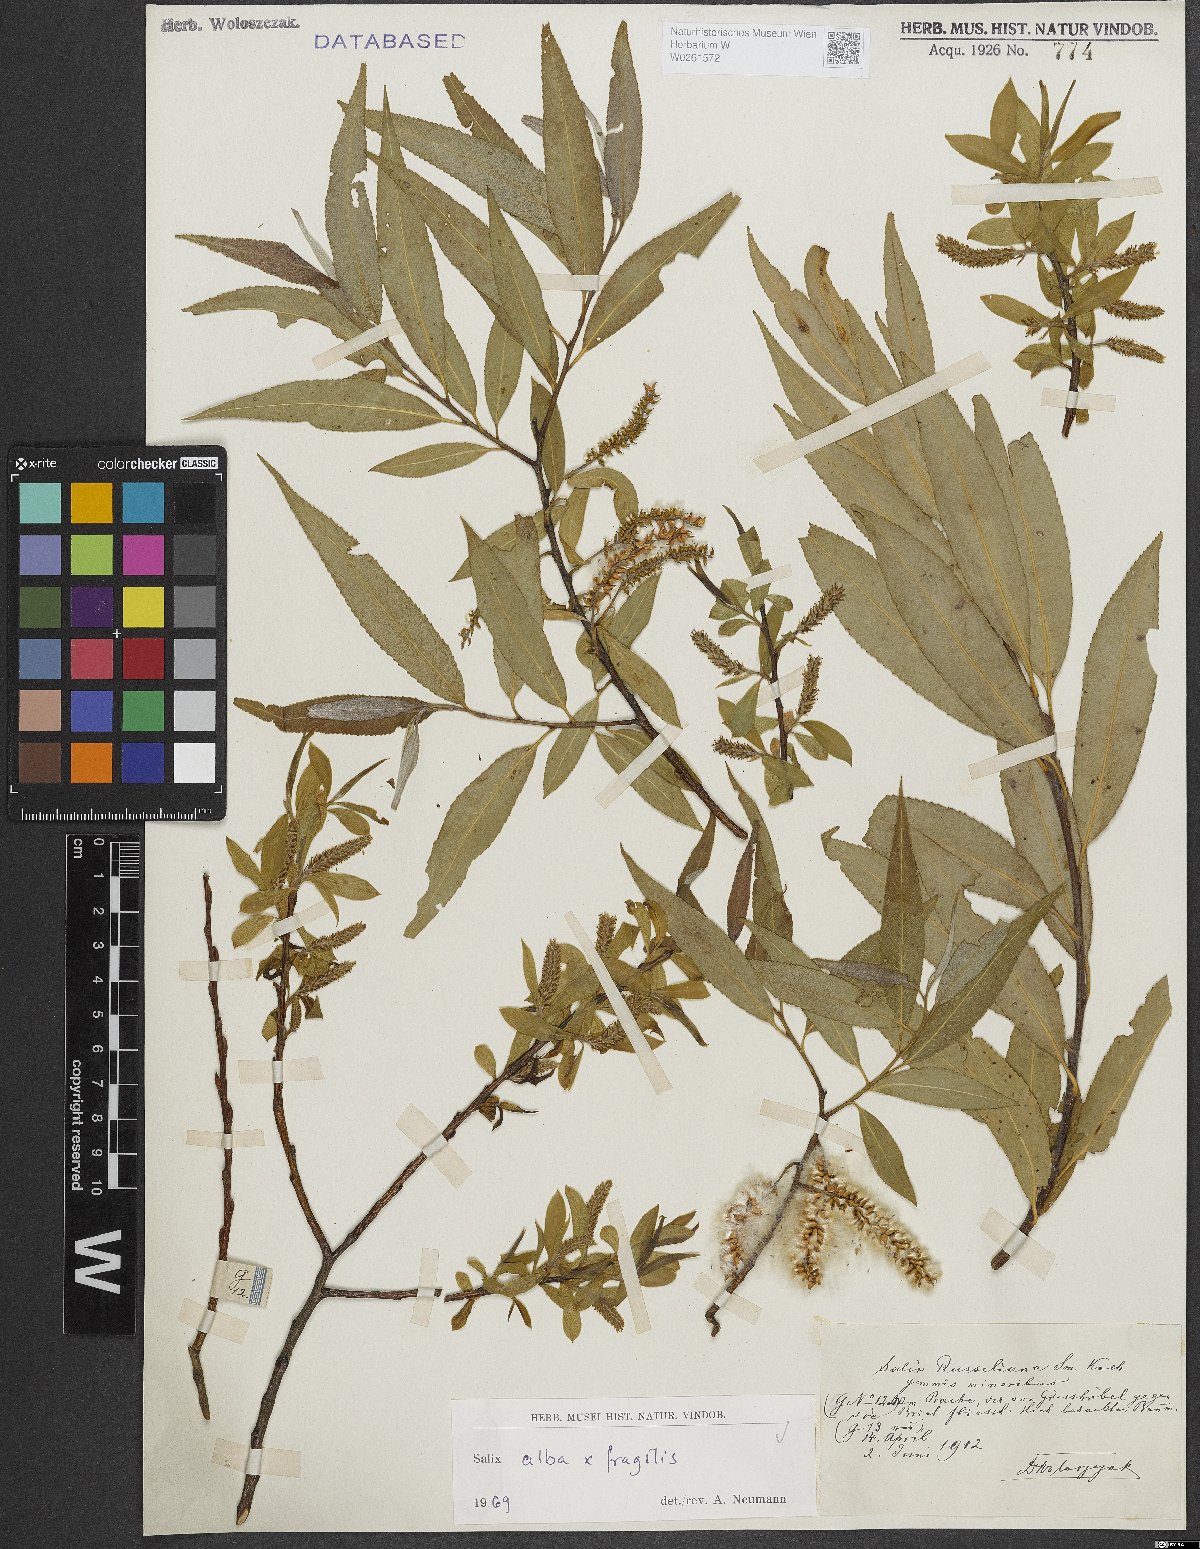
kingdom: Plantae
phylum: Tracheophyta
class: Magnoliopsida
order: Malpighiales
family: Salicaceae
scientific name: Salicaceae
